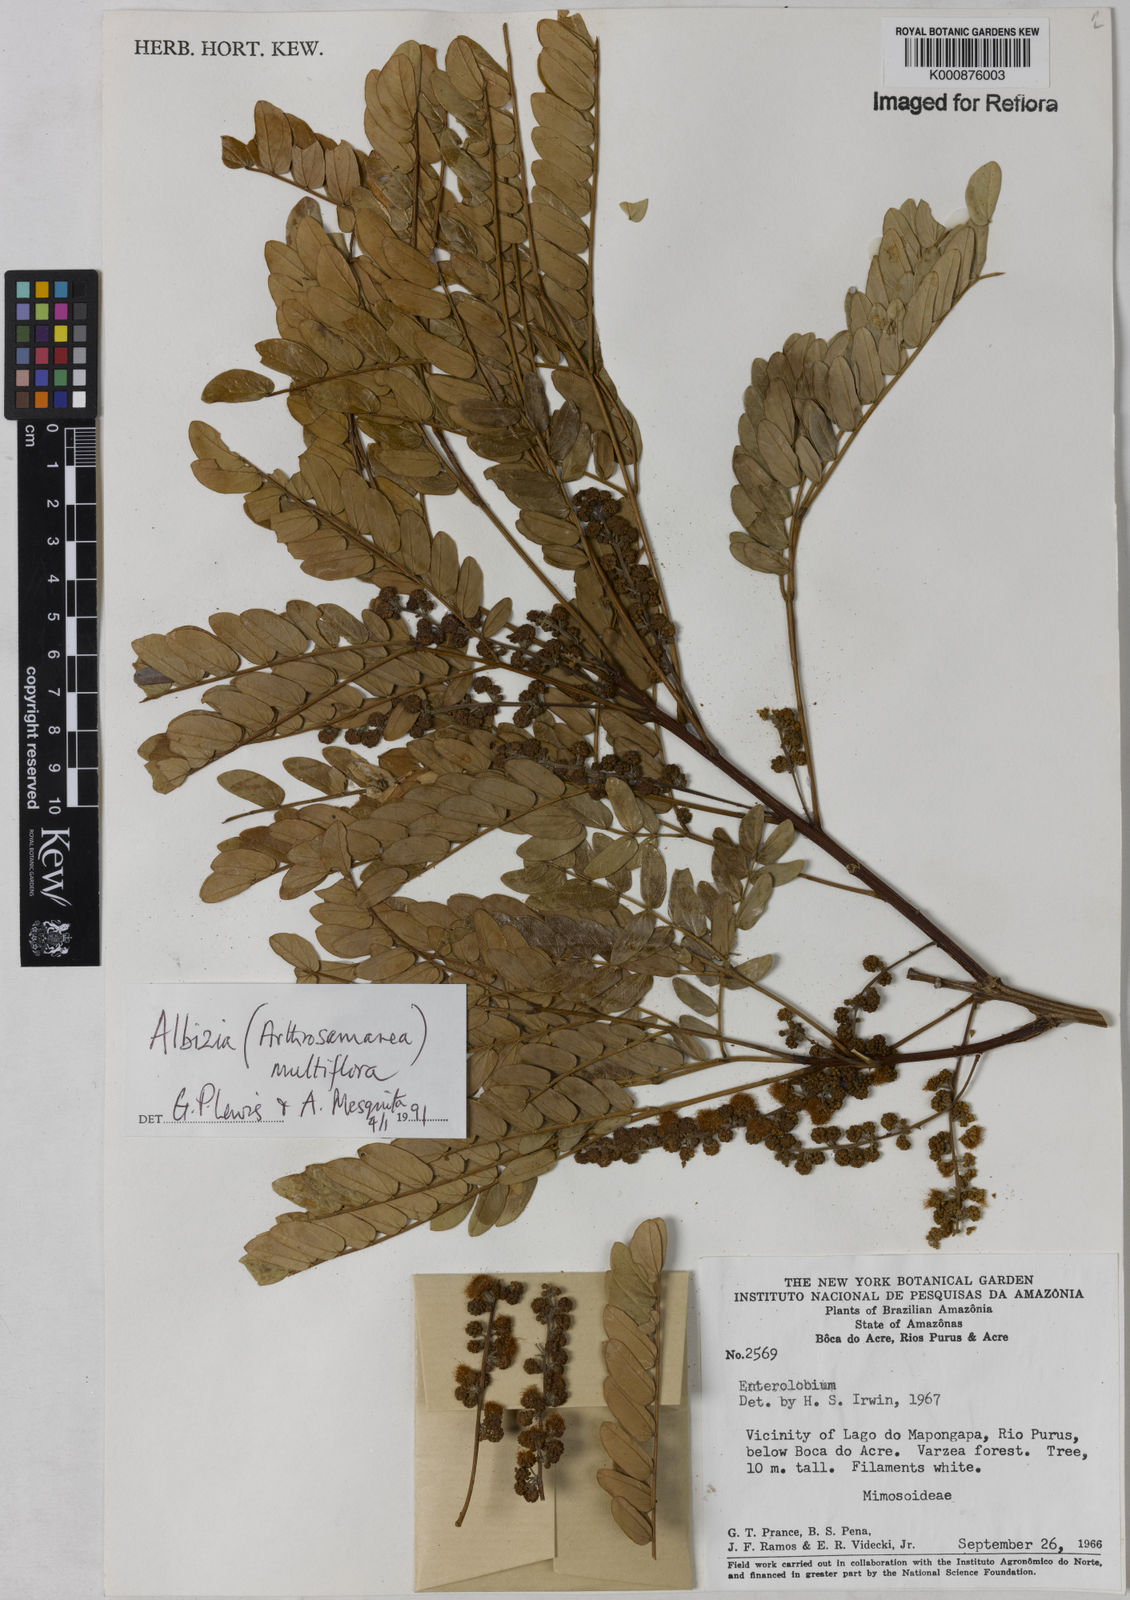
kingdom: Plantae
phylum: Tracheophyta
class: Magnoliopsida
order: Fabales
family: Fabaceae
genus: Albizia
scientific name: Albizia multiflora
